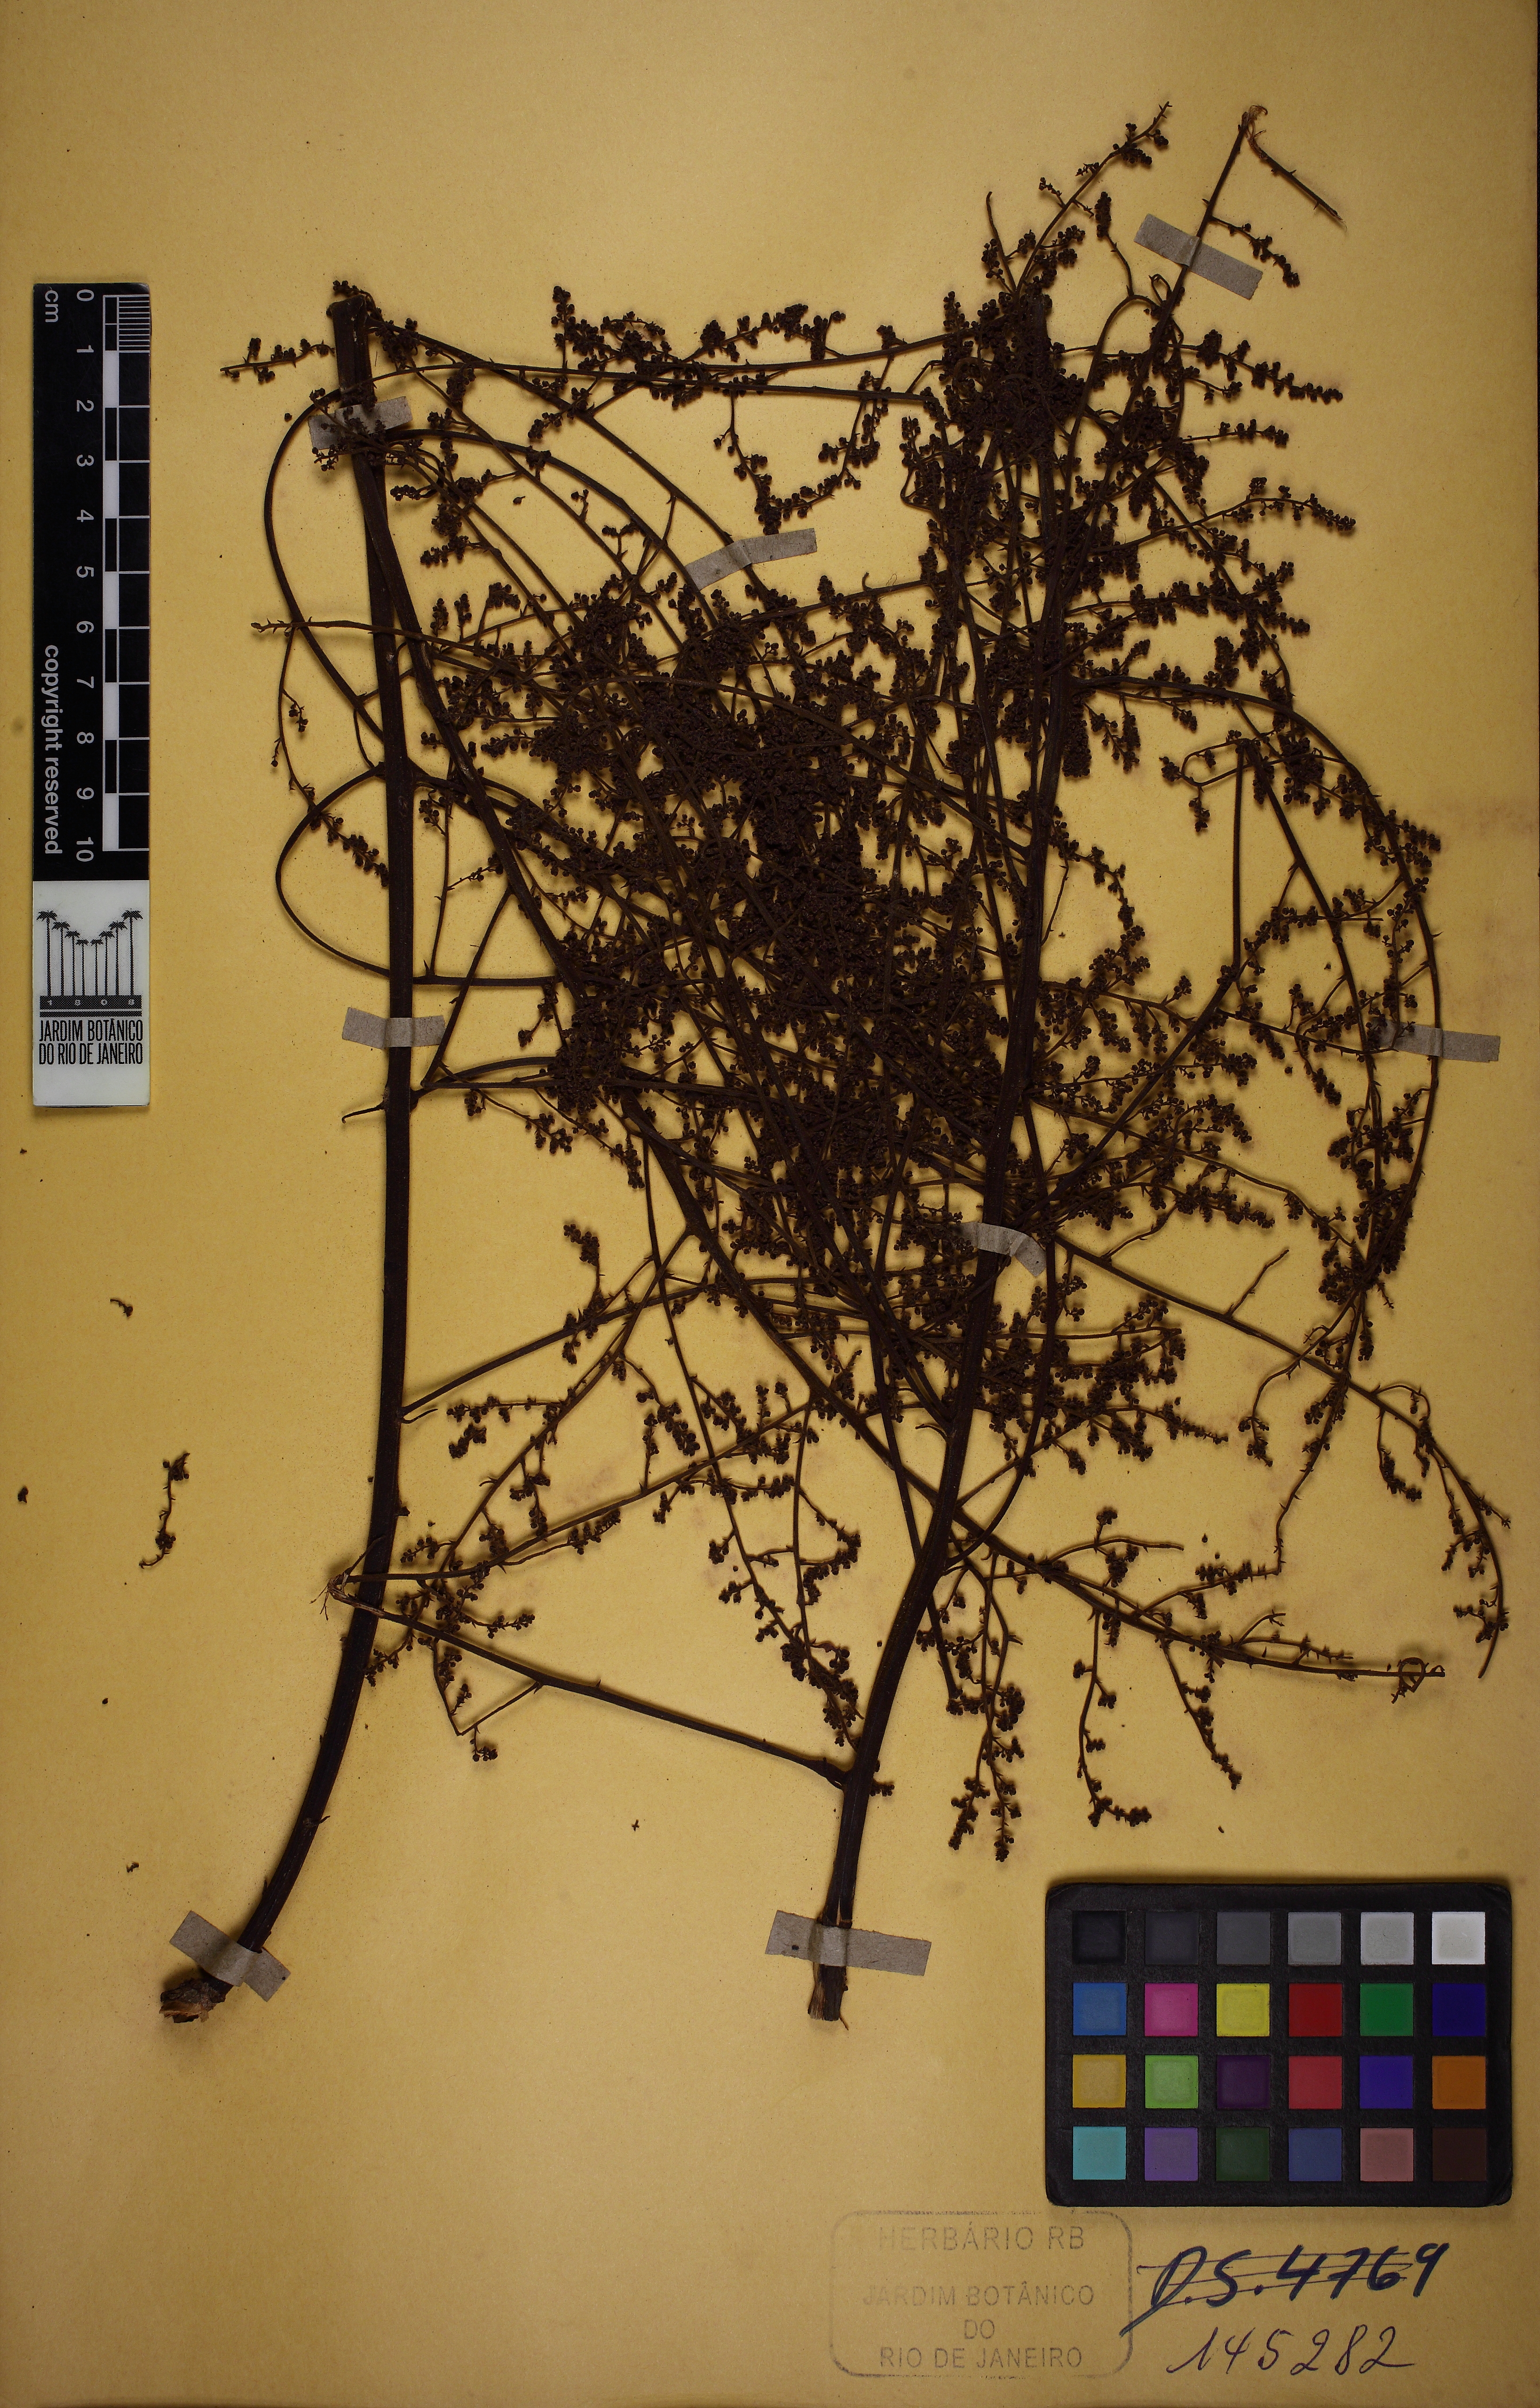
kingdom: Plantae
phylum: Tracheophyta
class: Magnoliopsida
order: Ericales
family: Primulaceae
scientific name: Primulaceae
